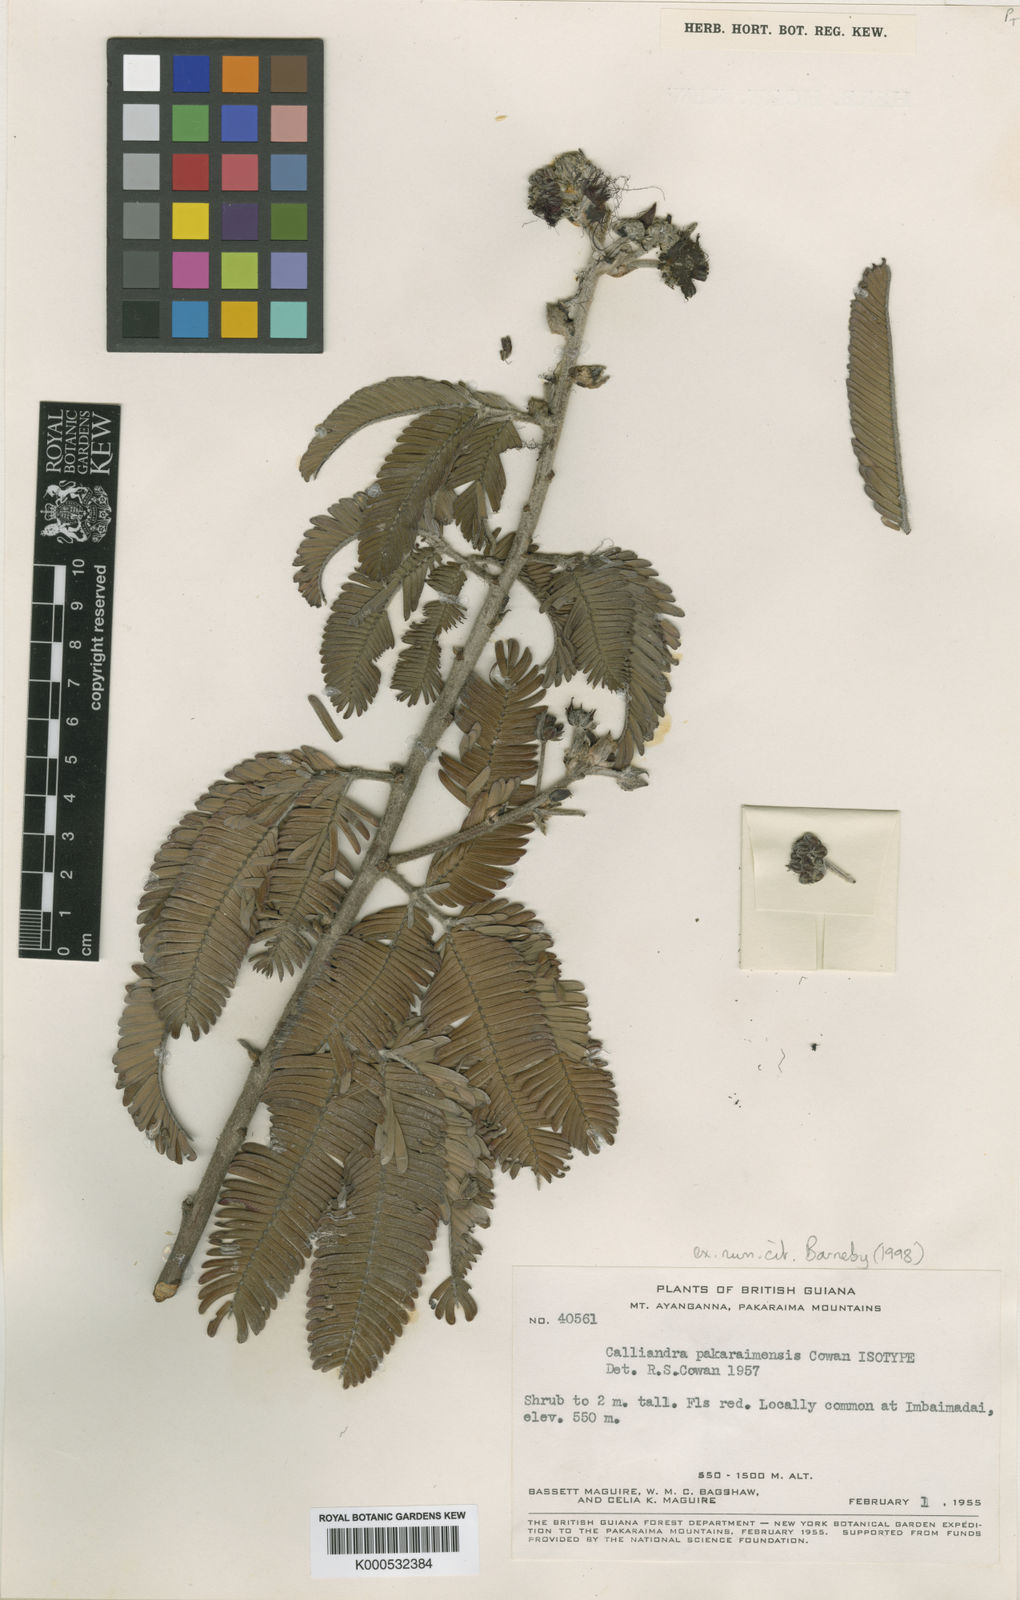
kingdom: Plantae
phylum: Tracheophyta
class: Magnoliopsida
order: Fabales
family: Fabaceae
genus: Calliandra
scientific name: Calliandra pakaraimensis
